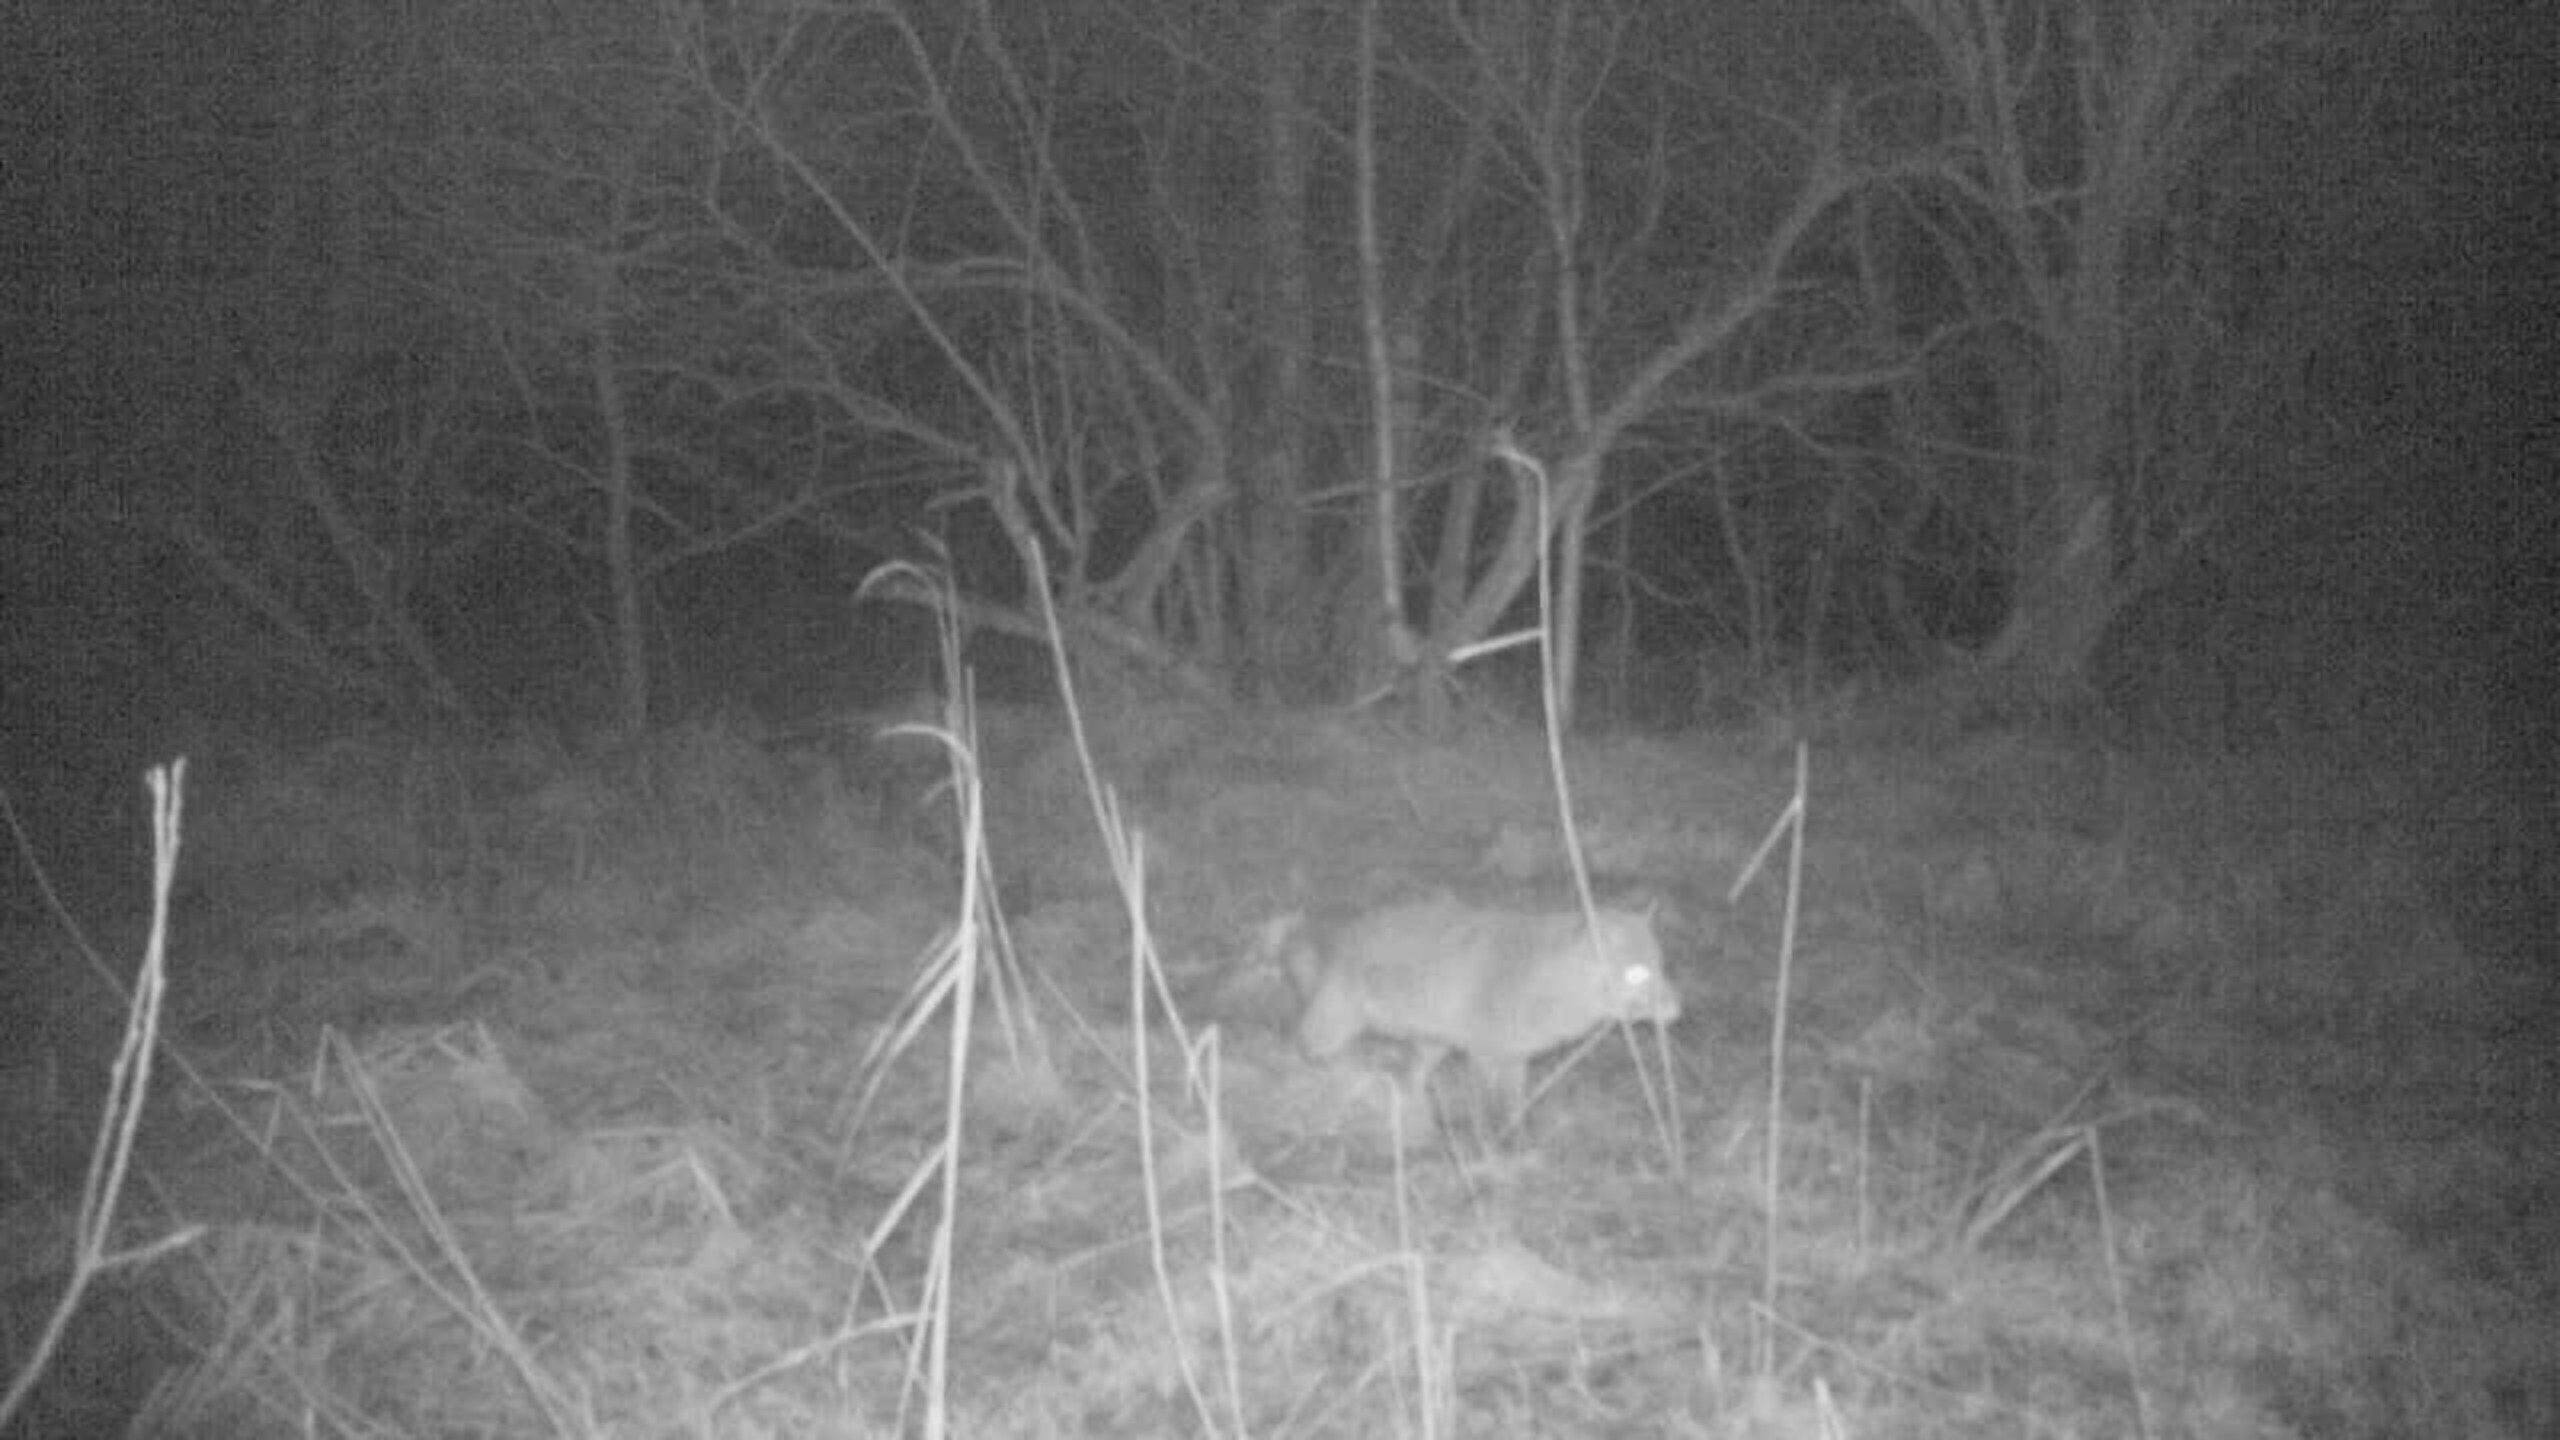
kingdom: Animalia
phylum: Chordata
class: Mammalia
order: Carnivora
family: Canidae
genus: Vulpes
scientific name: Vulpes vulpes
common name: Ræv
